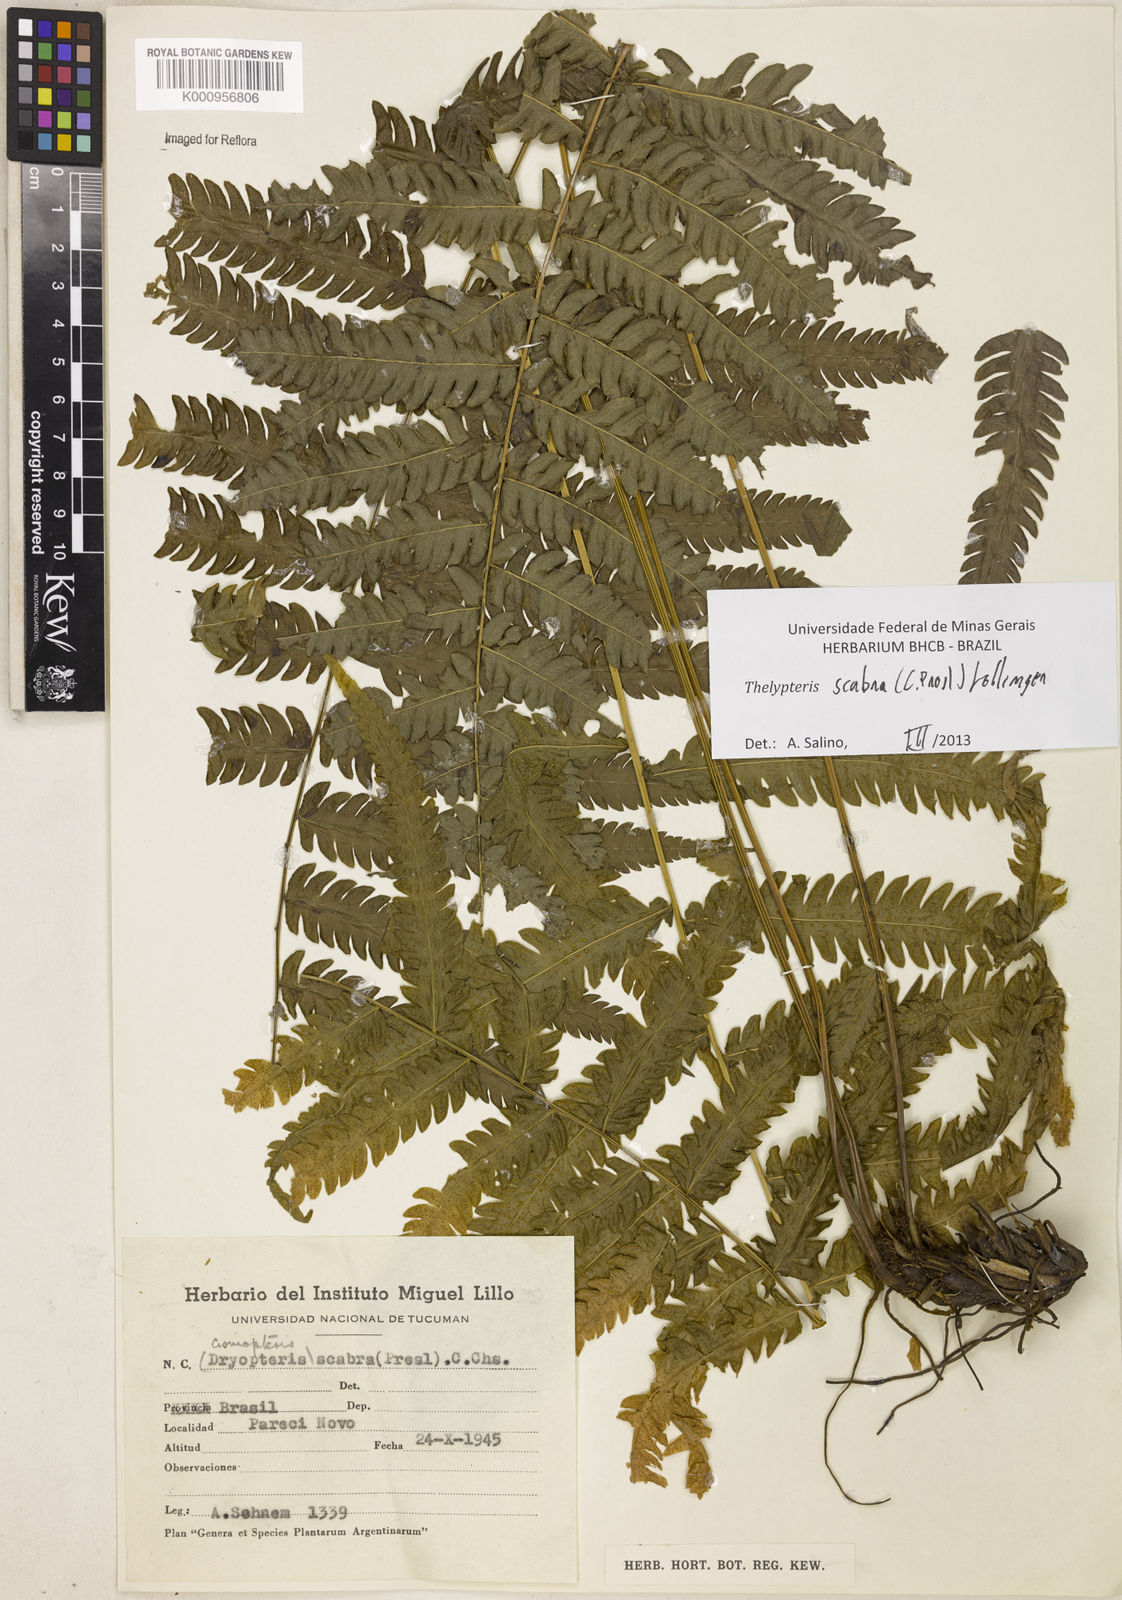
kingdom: Plantae
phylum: Tracheophyta
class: Polypodiopsida
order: Polypodiales
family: Thelypteridaceae
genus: Goniopteris
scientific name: Goniopteris scabra
